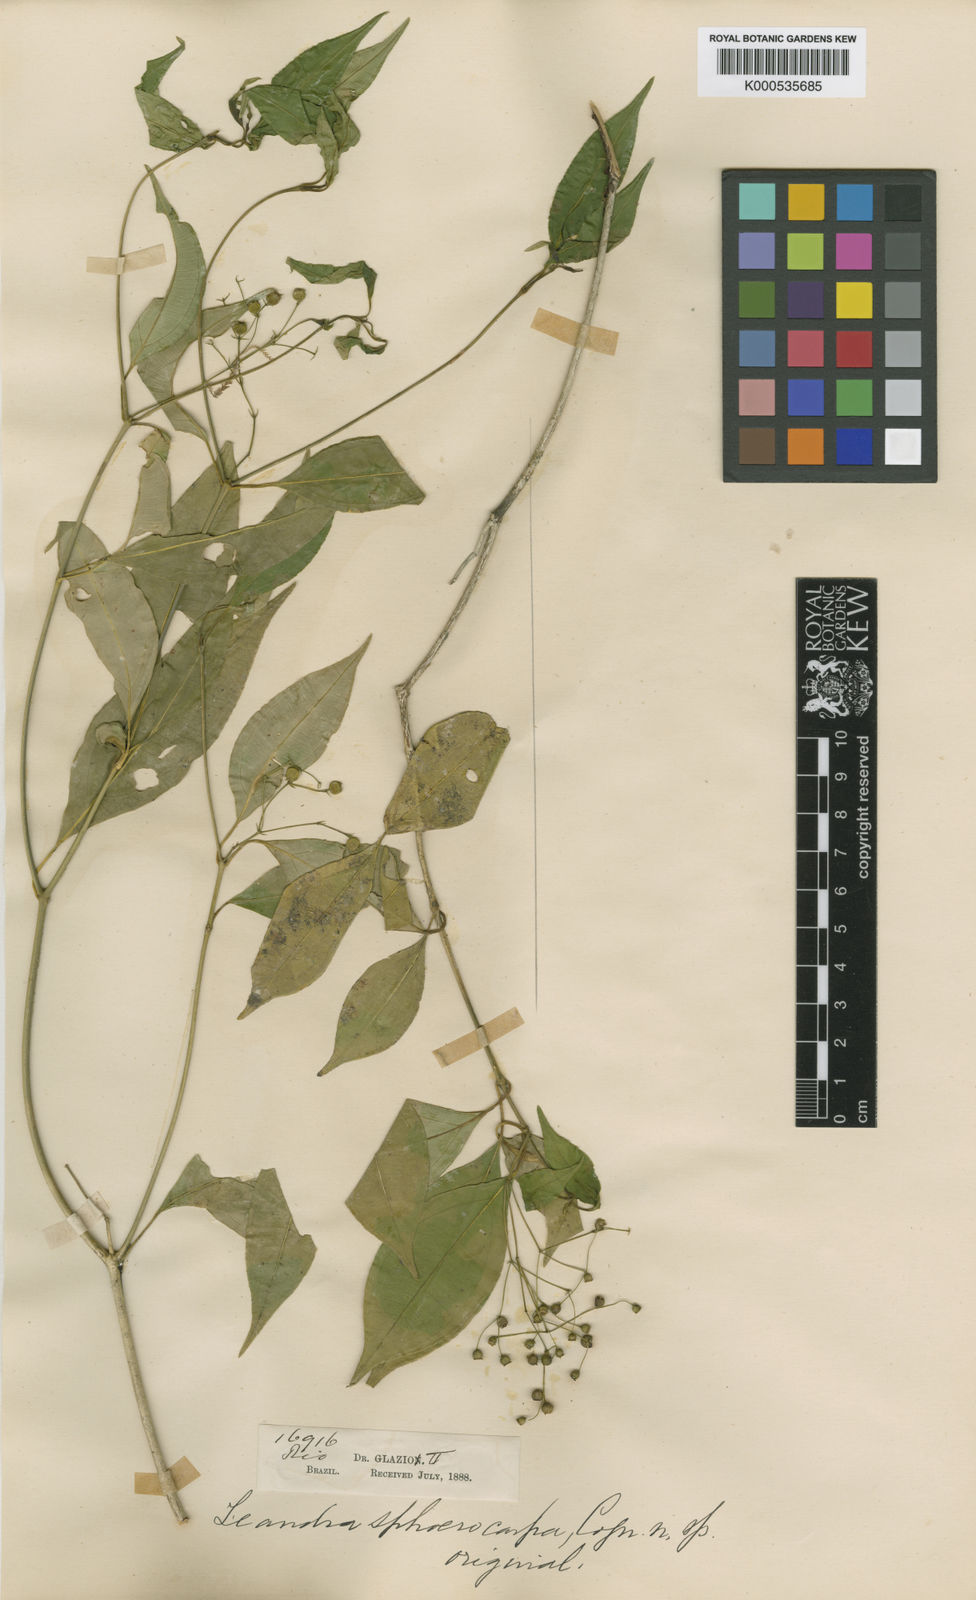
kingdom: Plantae
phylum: Tracheophyta
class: Magnoliopsida
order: Myrtales
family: Melastomataceae
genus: Miconia
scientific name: Miconia sphaerocarpa
